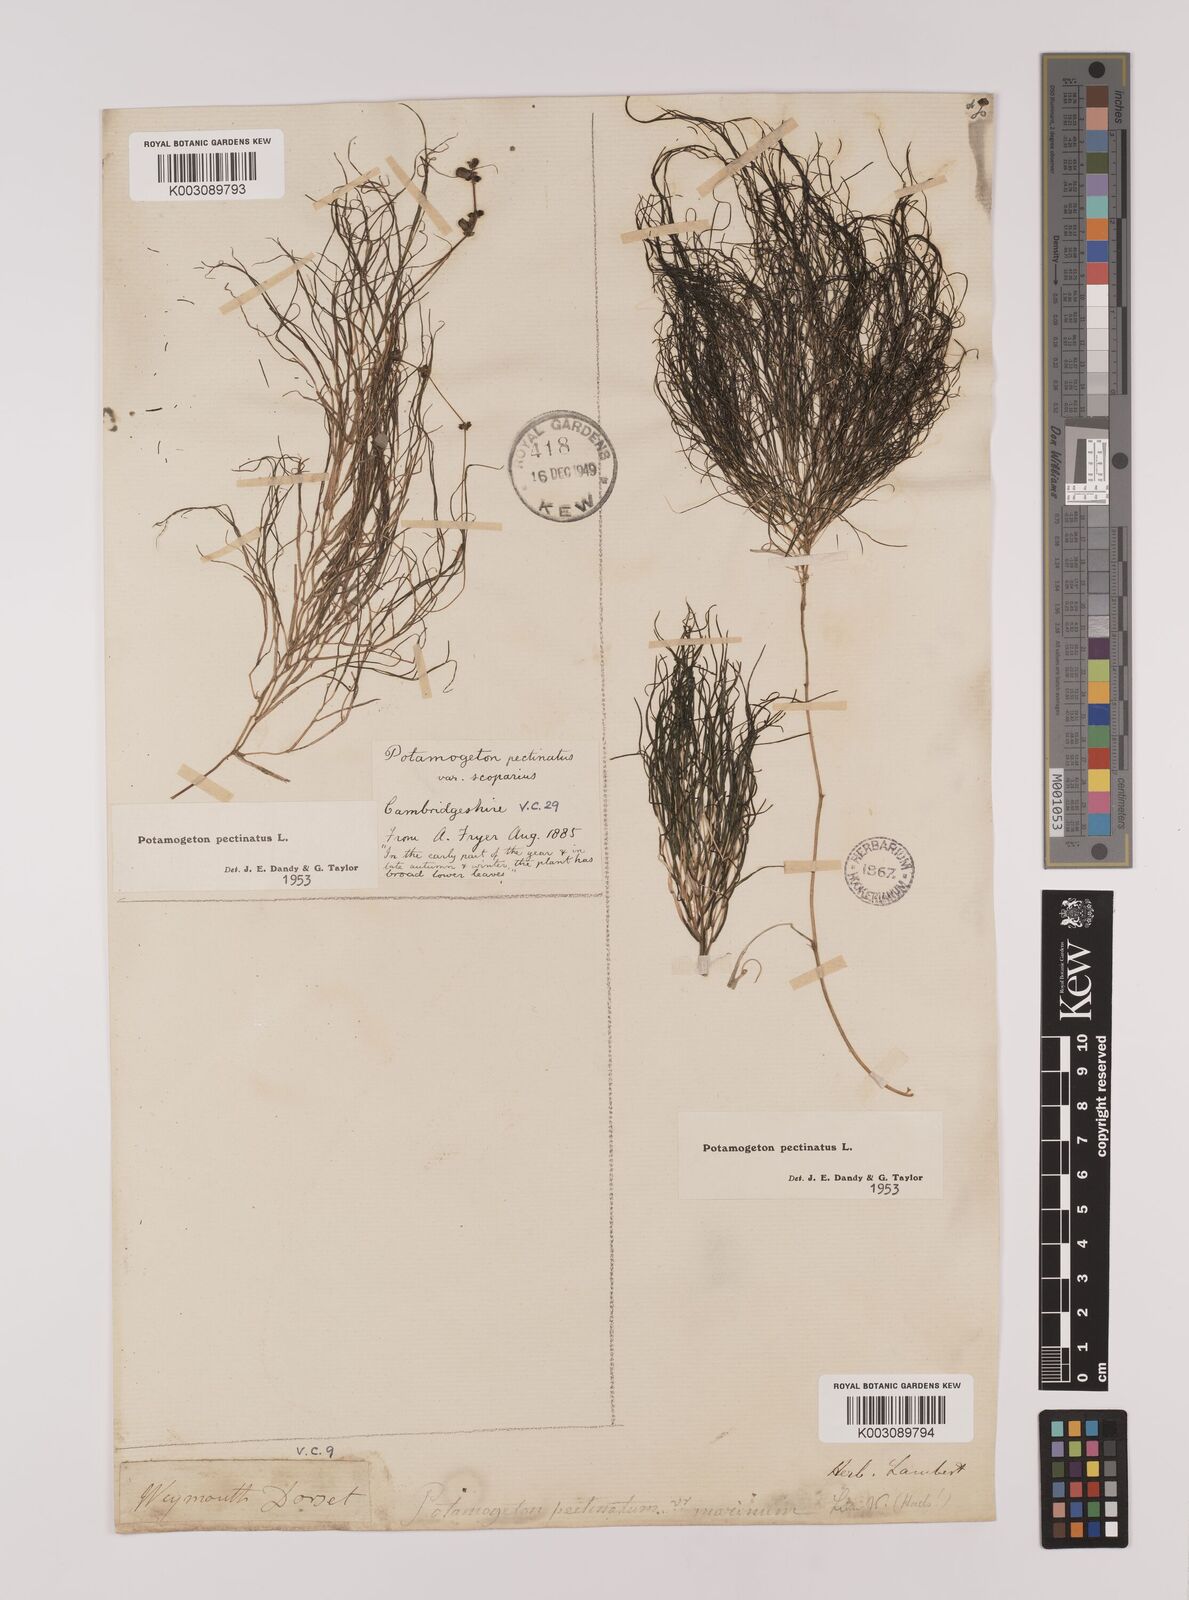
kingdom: Plantae
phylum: Tracheophyta
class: Liliopsida
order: Alismatales
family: Potamogetonaceae
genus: Stuckenia
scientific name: Stuckenia pectinata
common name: Sago pondweed
